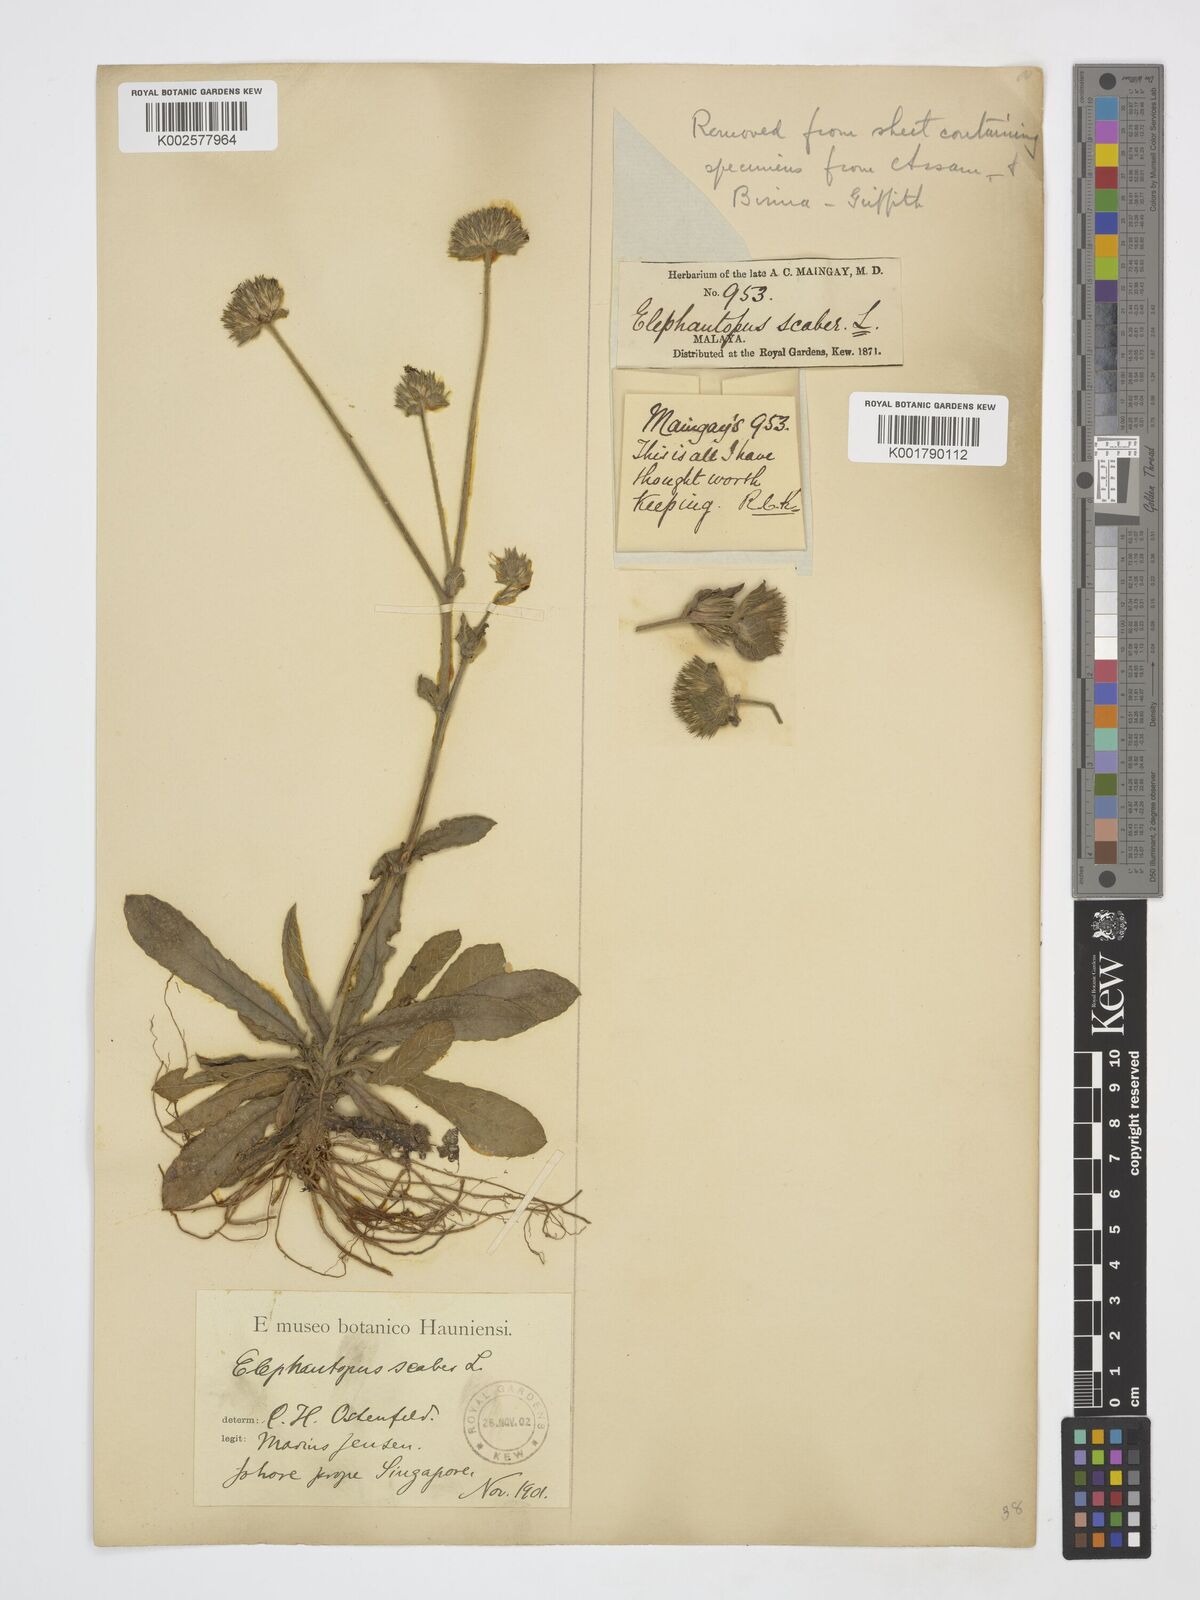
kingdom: Plantae
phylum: Tracheophyta
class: Magnoliopsida
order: Asterales
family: Asteraceae
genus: Elephantopus
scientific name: Elephantopus scaber
